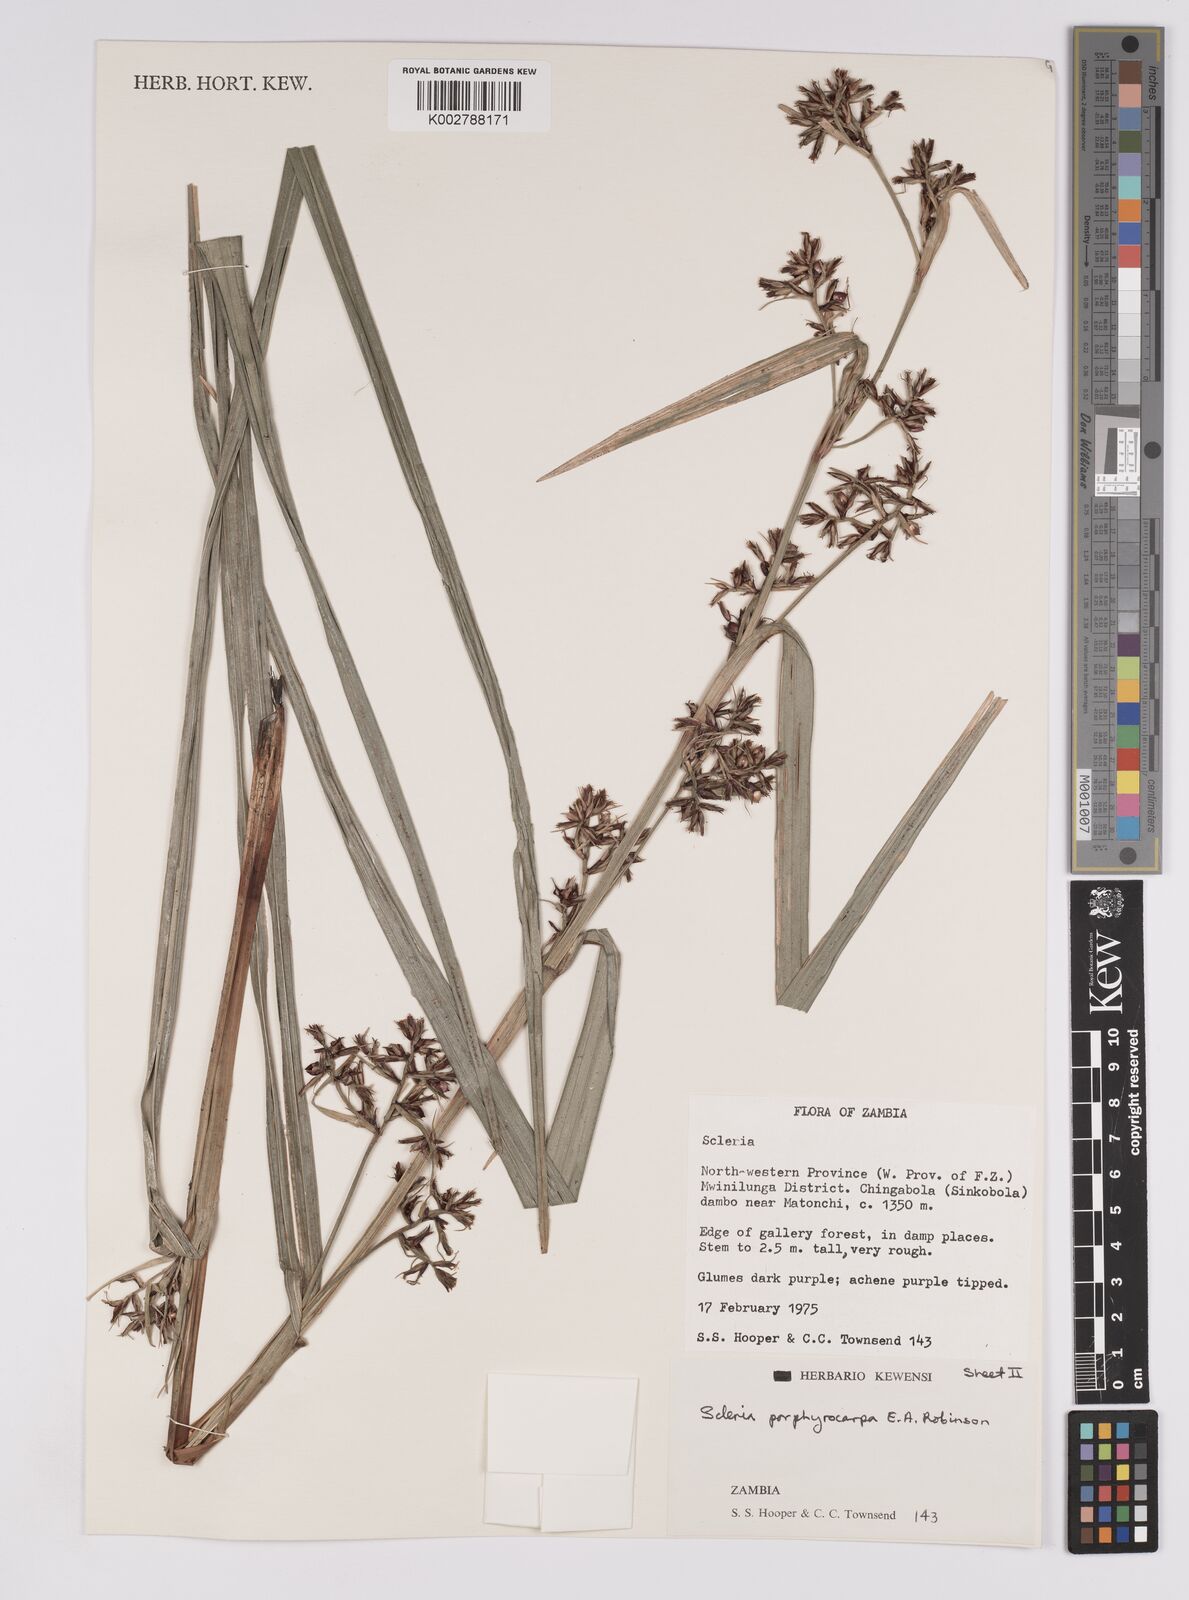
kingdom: Plantae
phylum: Tracheophyta
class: Liliopsida
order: Poales
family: Cyperaceae
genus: Scleria
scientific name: Scleria porphyrocarpa
